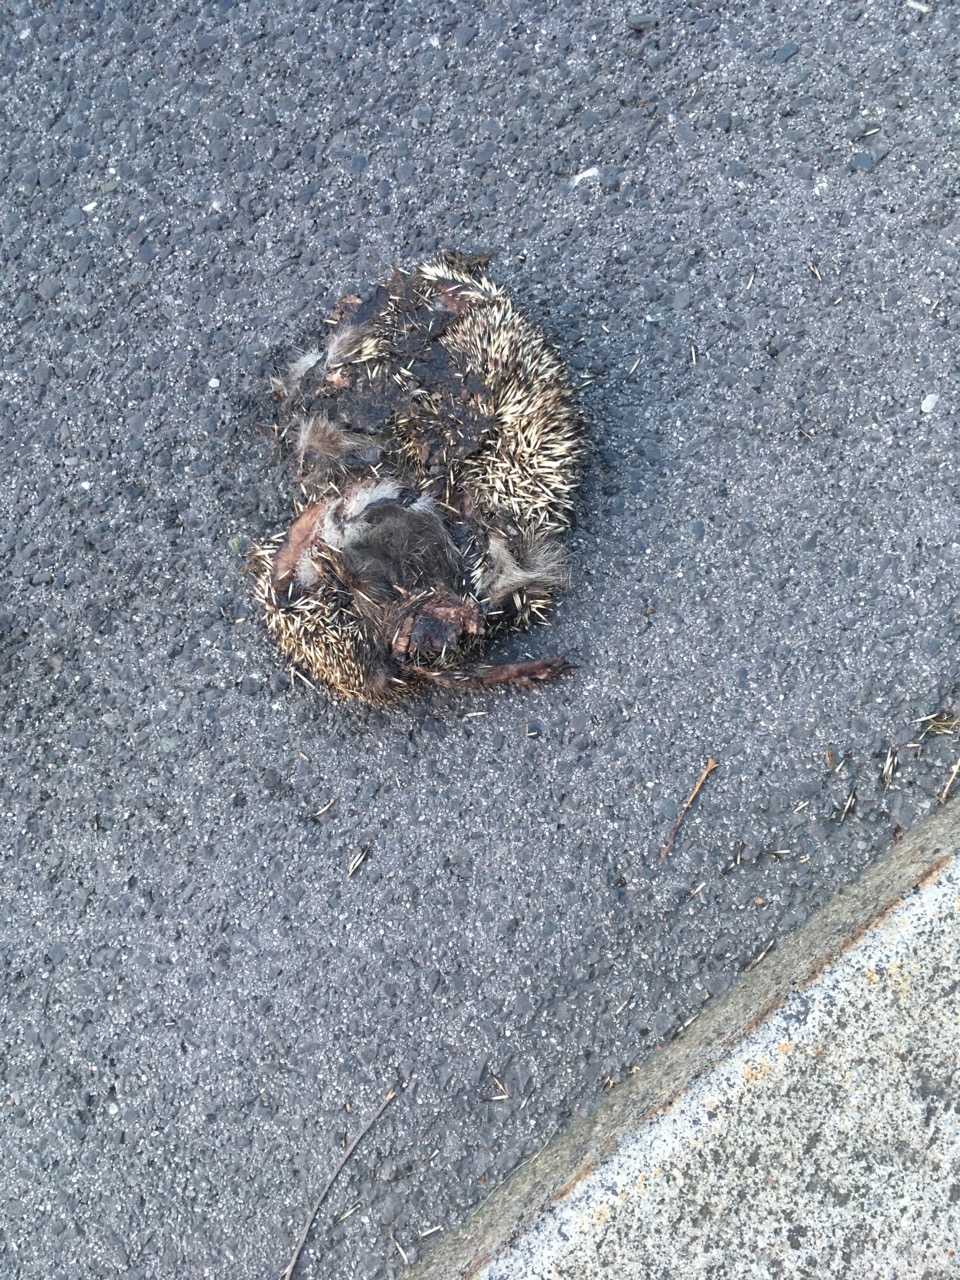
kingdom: Animalia
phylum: Chordata
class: Mammalia
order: Erinaceomorpha
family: Erinaceidae
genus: Erinaceus
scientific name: Erinaceus
